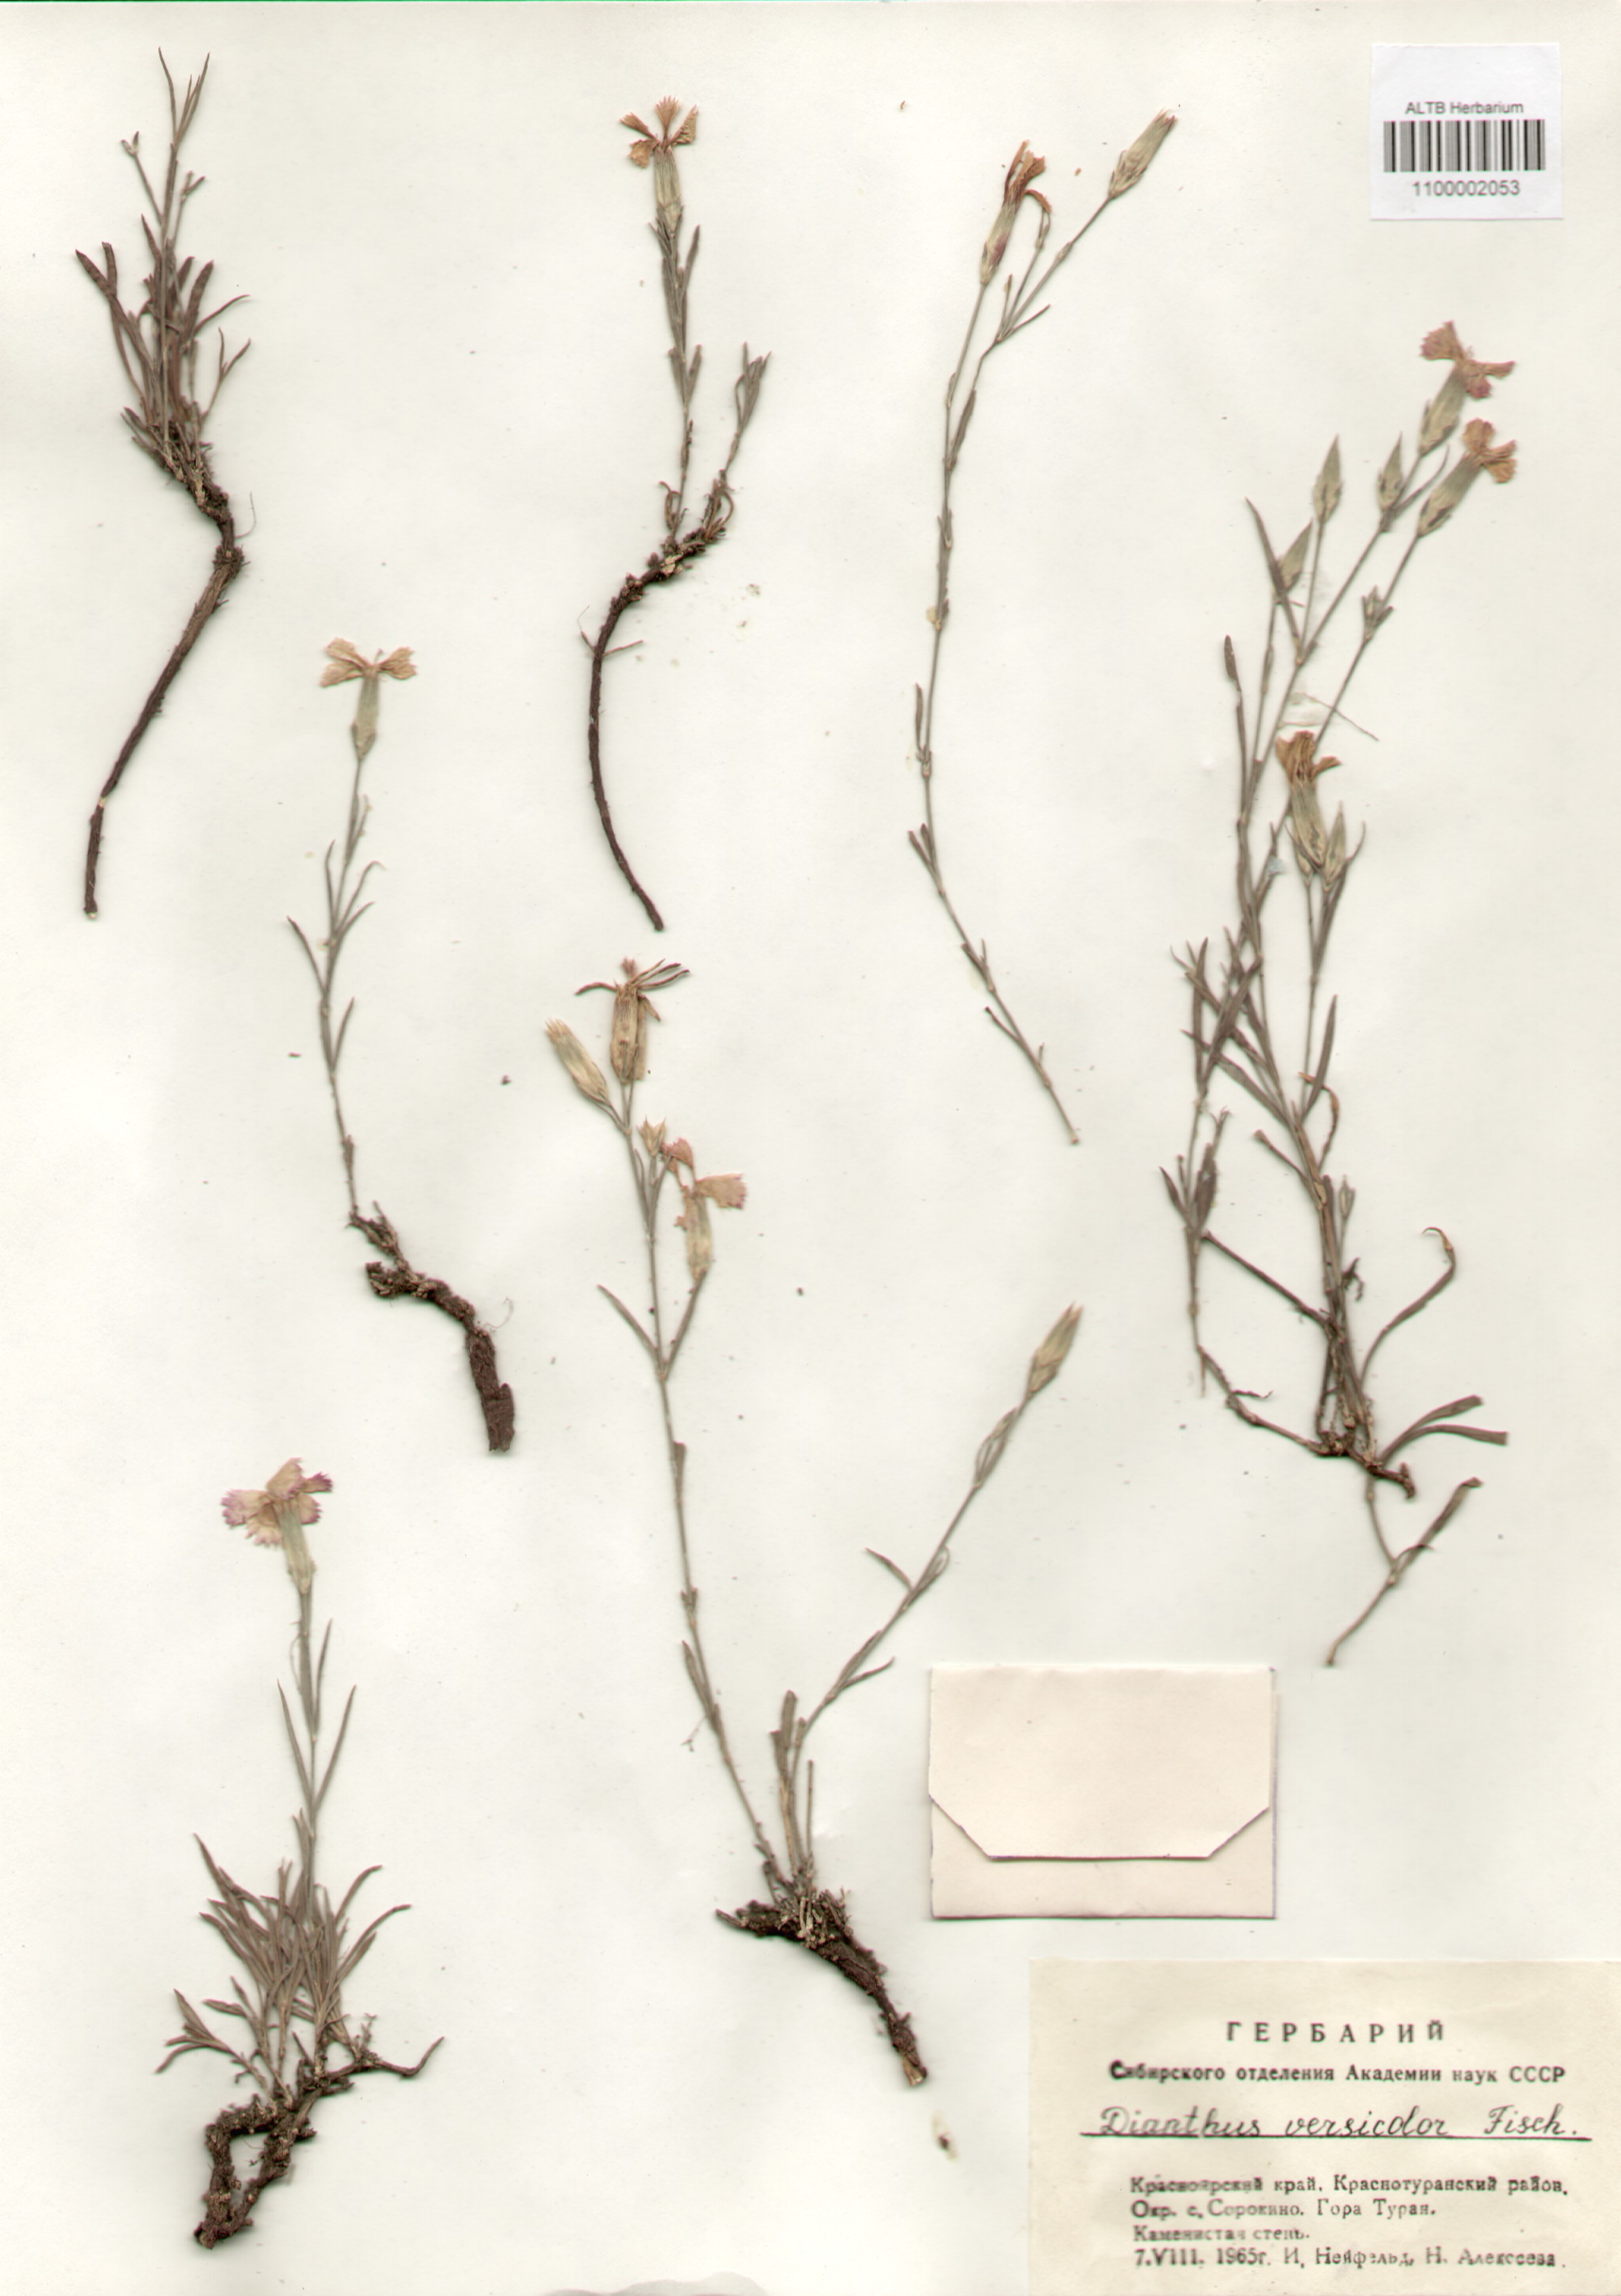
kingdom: Plantae
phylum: Tracheophyta
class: Magnoliopsida
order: Caryophyllales
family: Caryophyllaceae
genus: Dianthus
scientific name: Dianthus chinensis
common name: Rainbow pink
